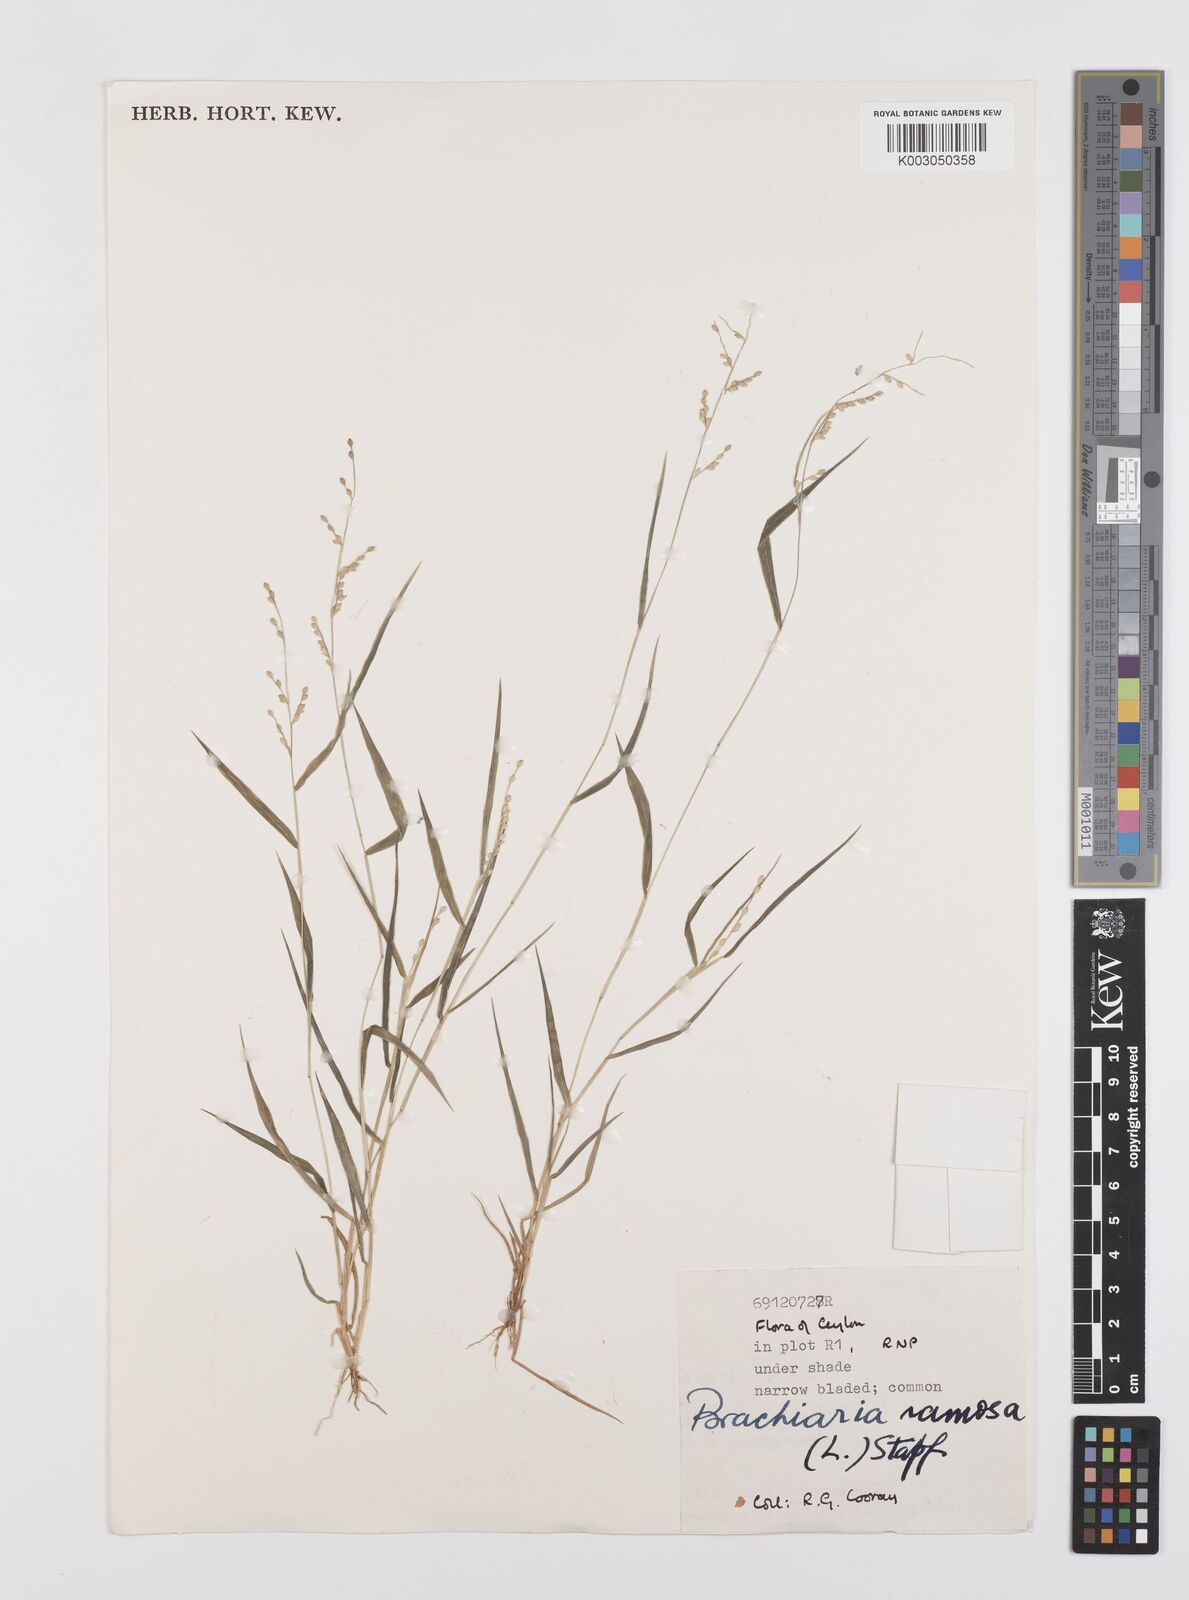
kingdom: Plantae
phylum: Tracheophyta
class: Liliopsida
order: Poales
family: Poaceae
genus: Urochloa
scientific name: Urochloa ramosa
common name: Browntop millet
